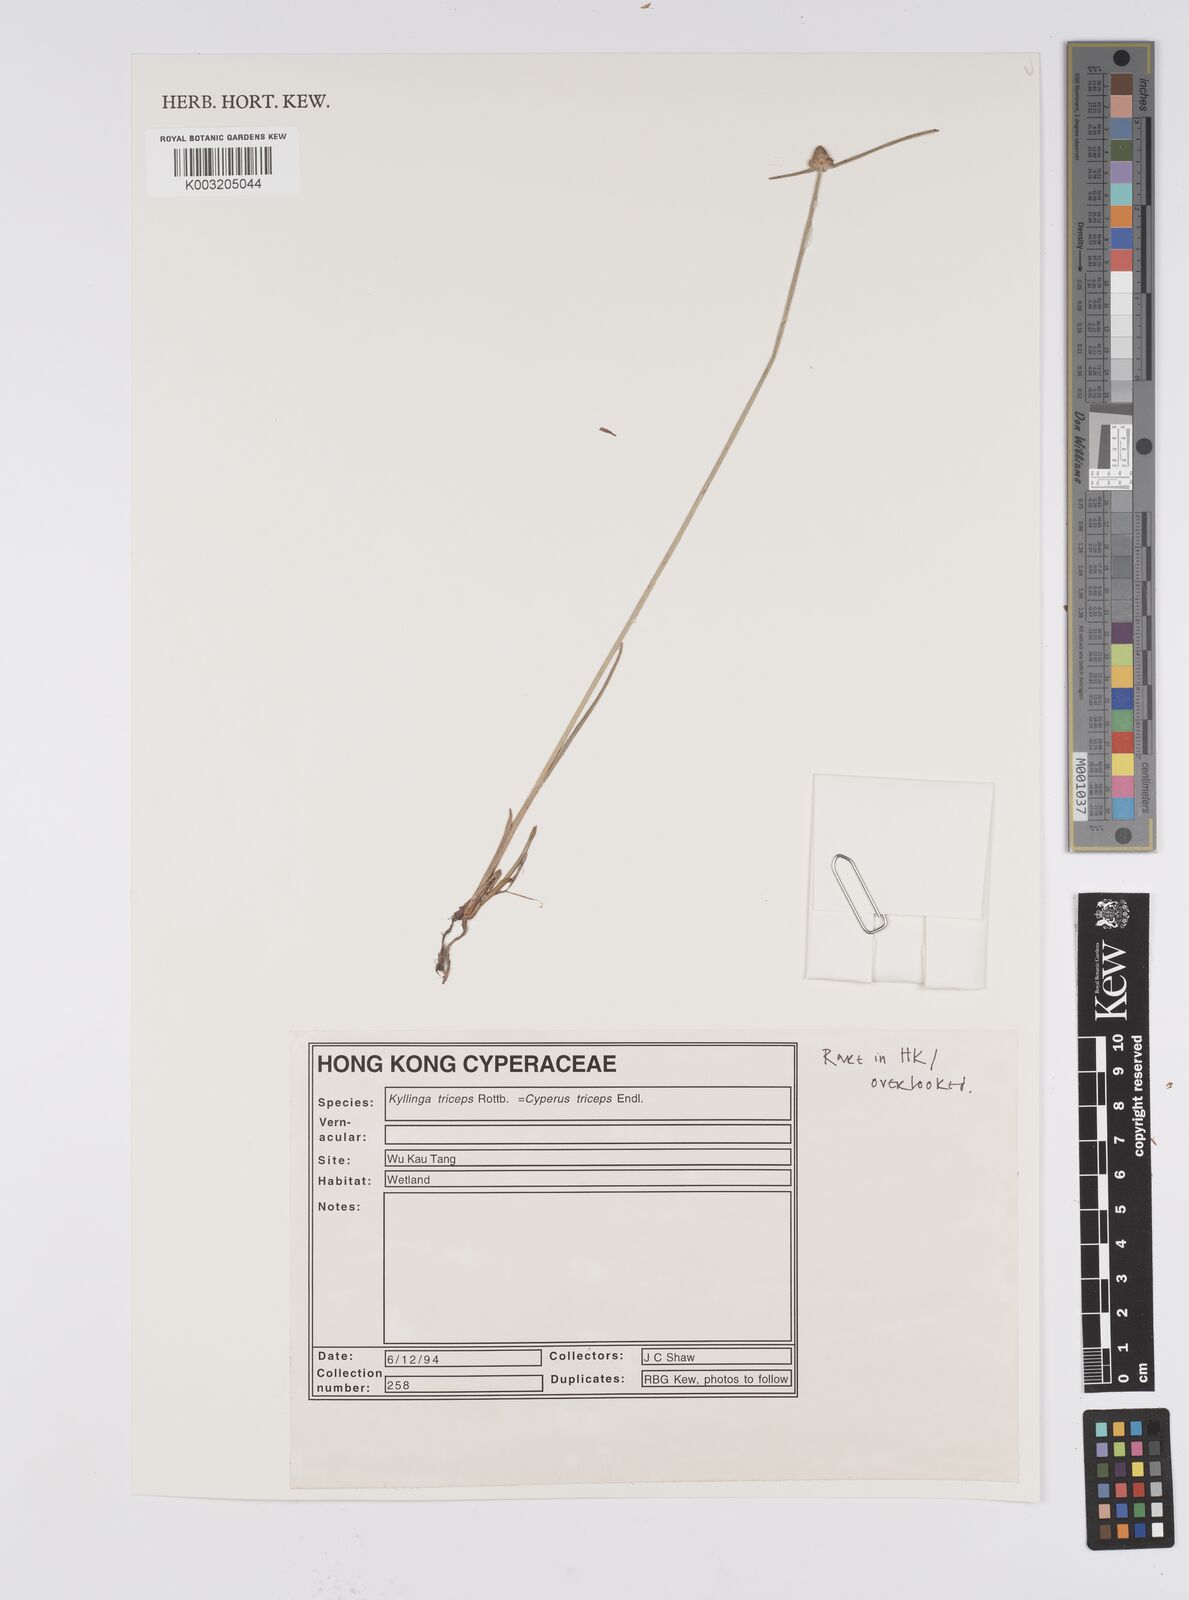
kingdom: Plantae
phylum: Tracheophyta
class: Liliopsida
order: Poales
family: Cyperaceae
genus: Cyperus
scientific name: Cyperus
